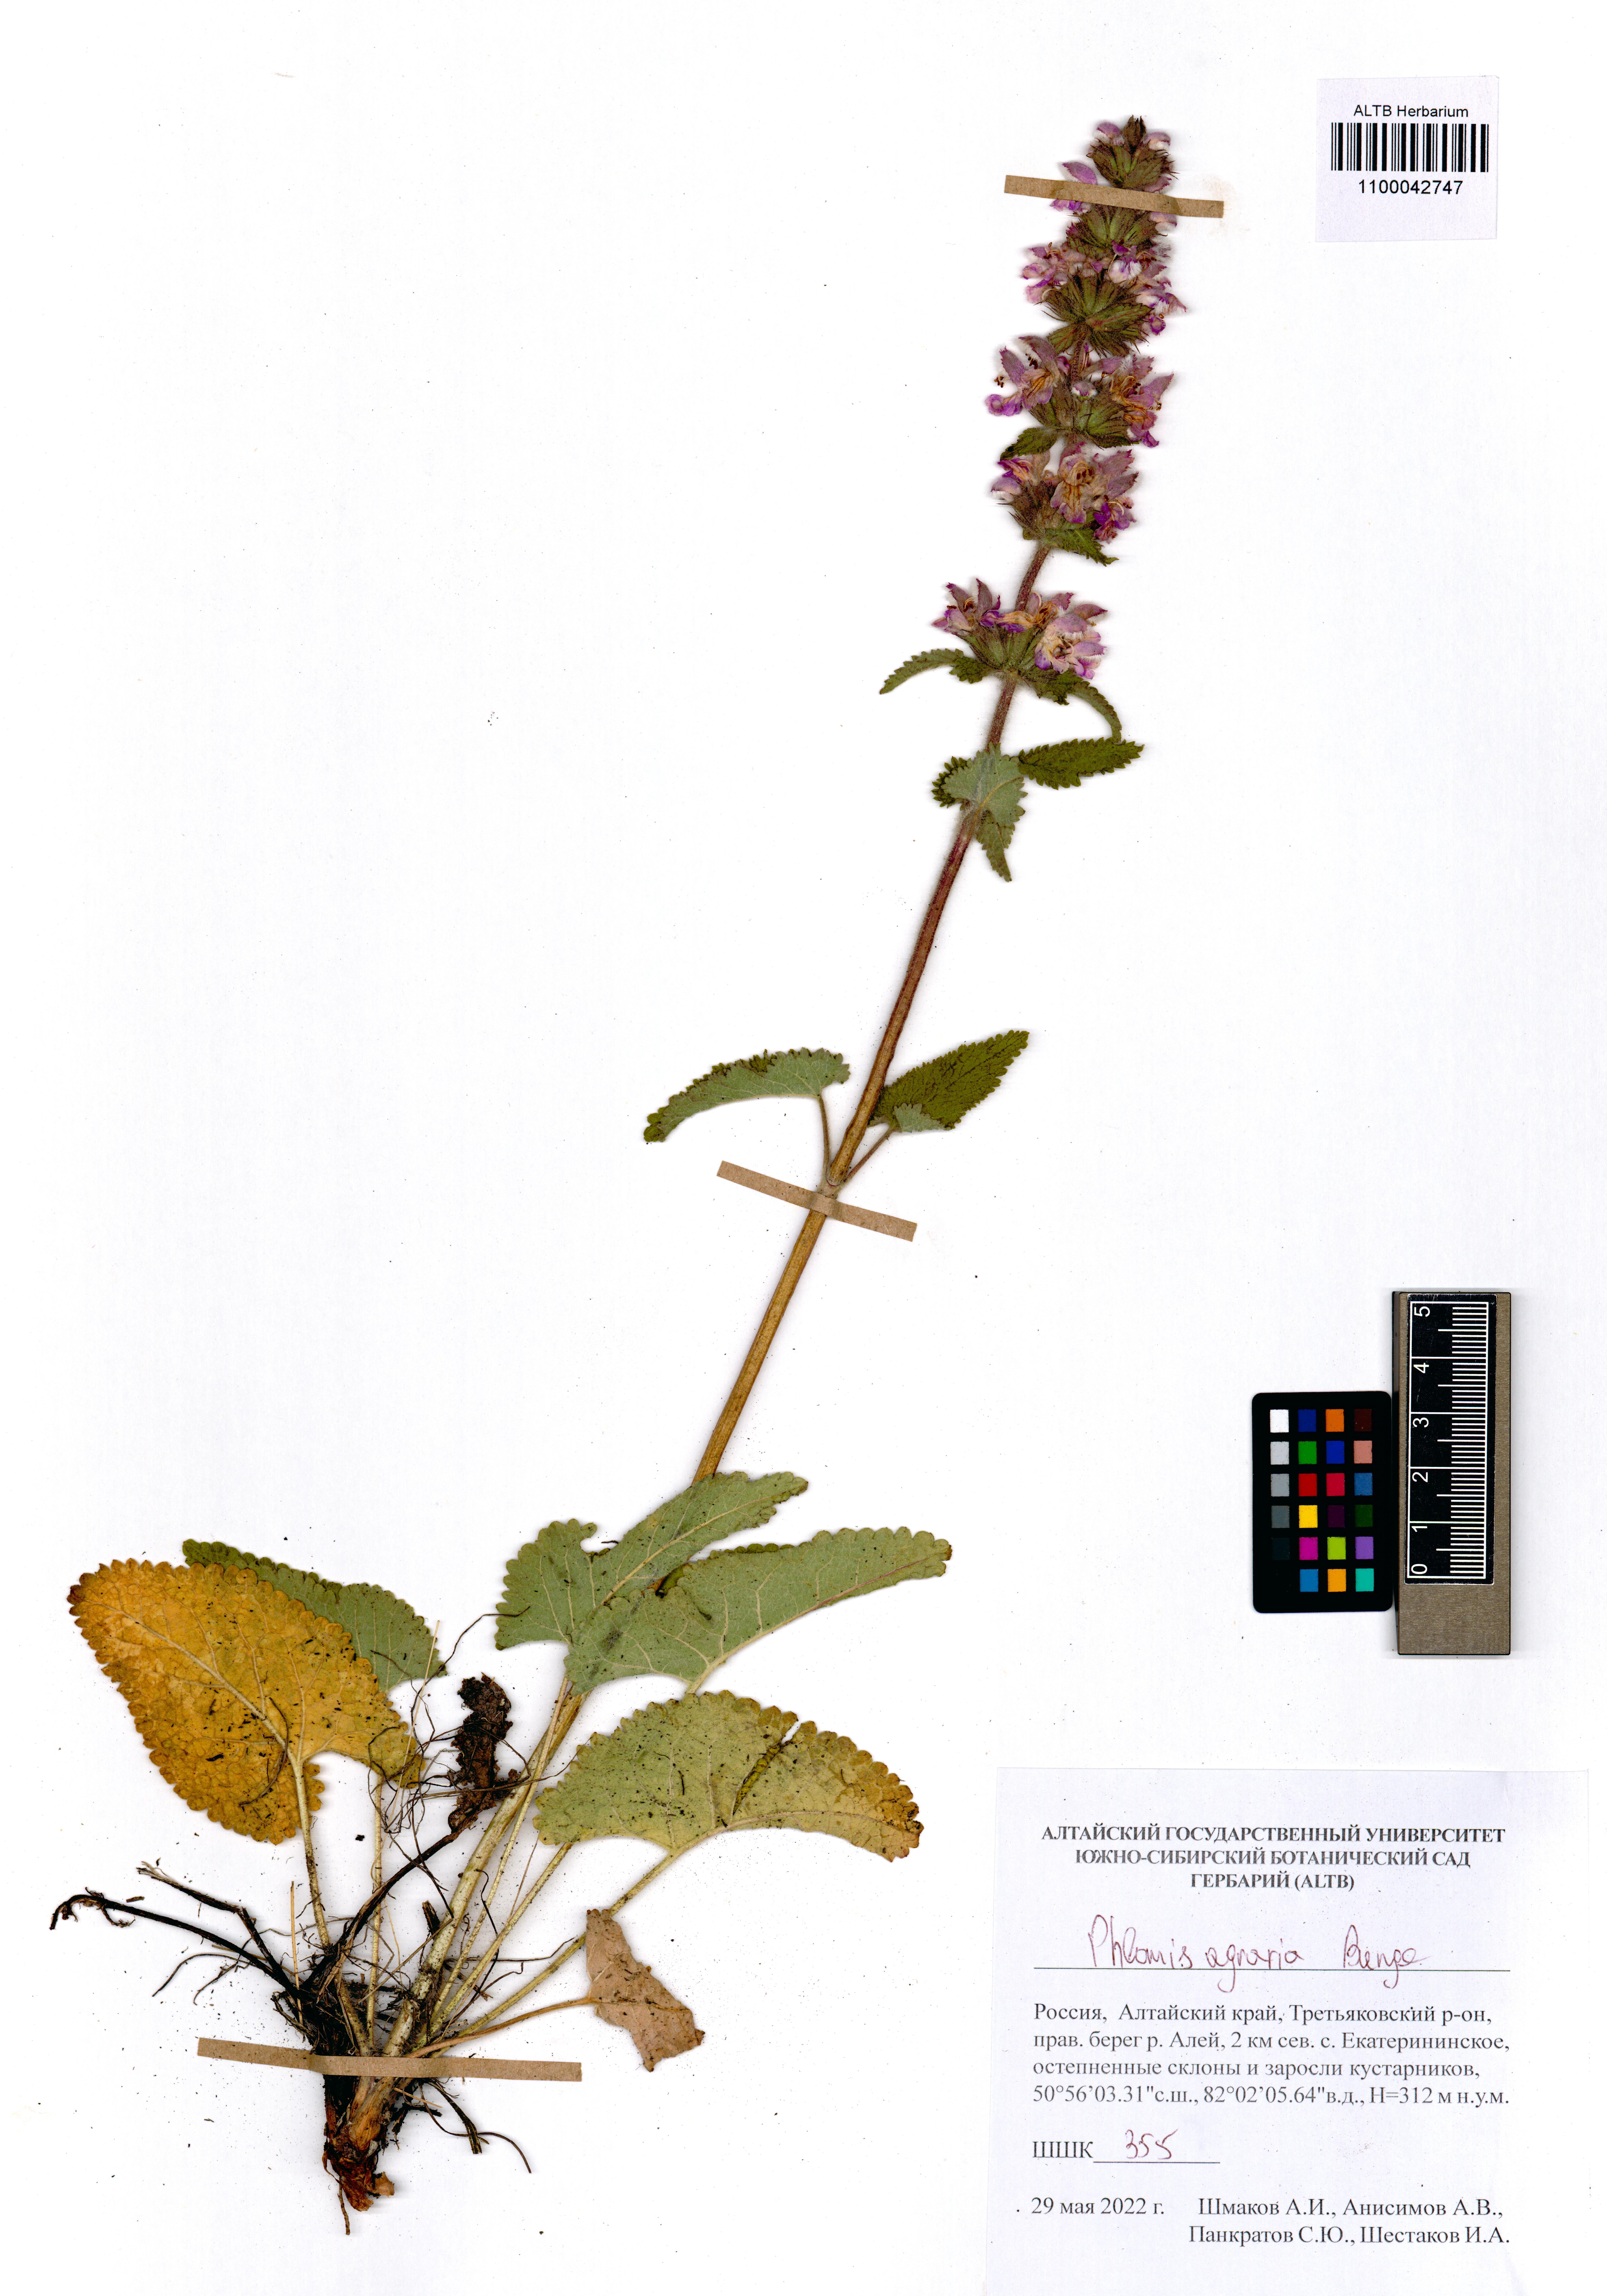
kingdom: Plantae
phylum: Tracheophyta
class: Magnoliopsida
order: Lamiales
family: Lamiaceae
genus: Phlomoides
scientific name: Phlomoides agraria
